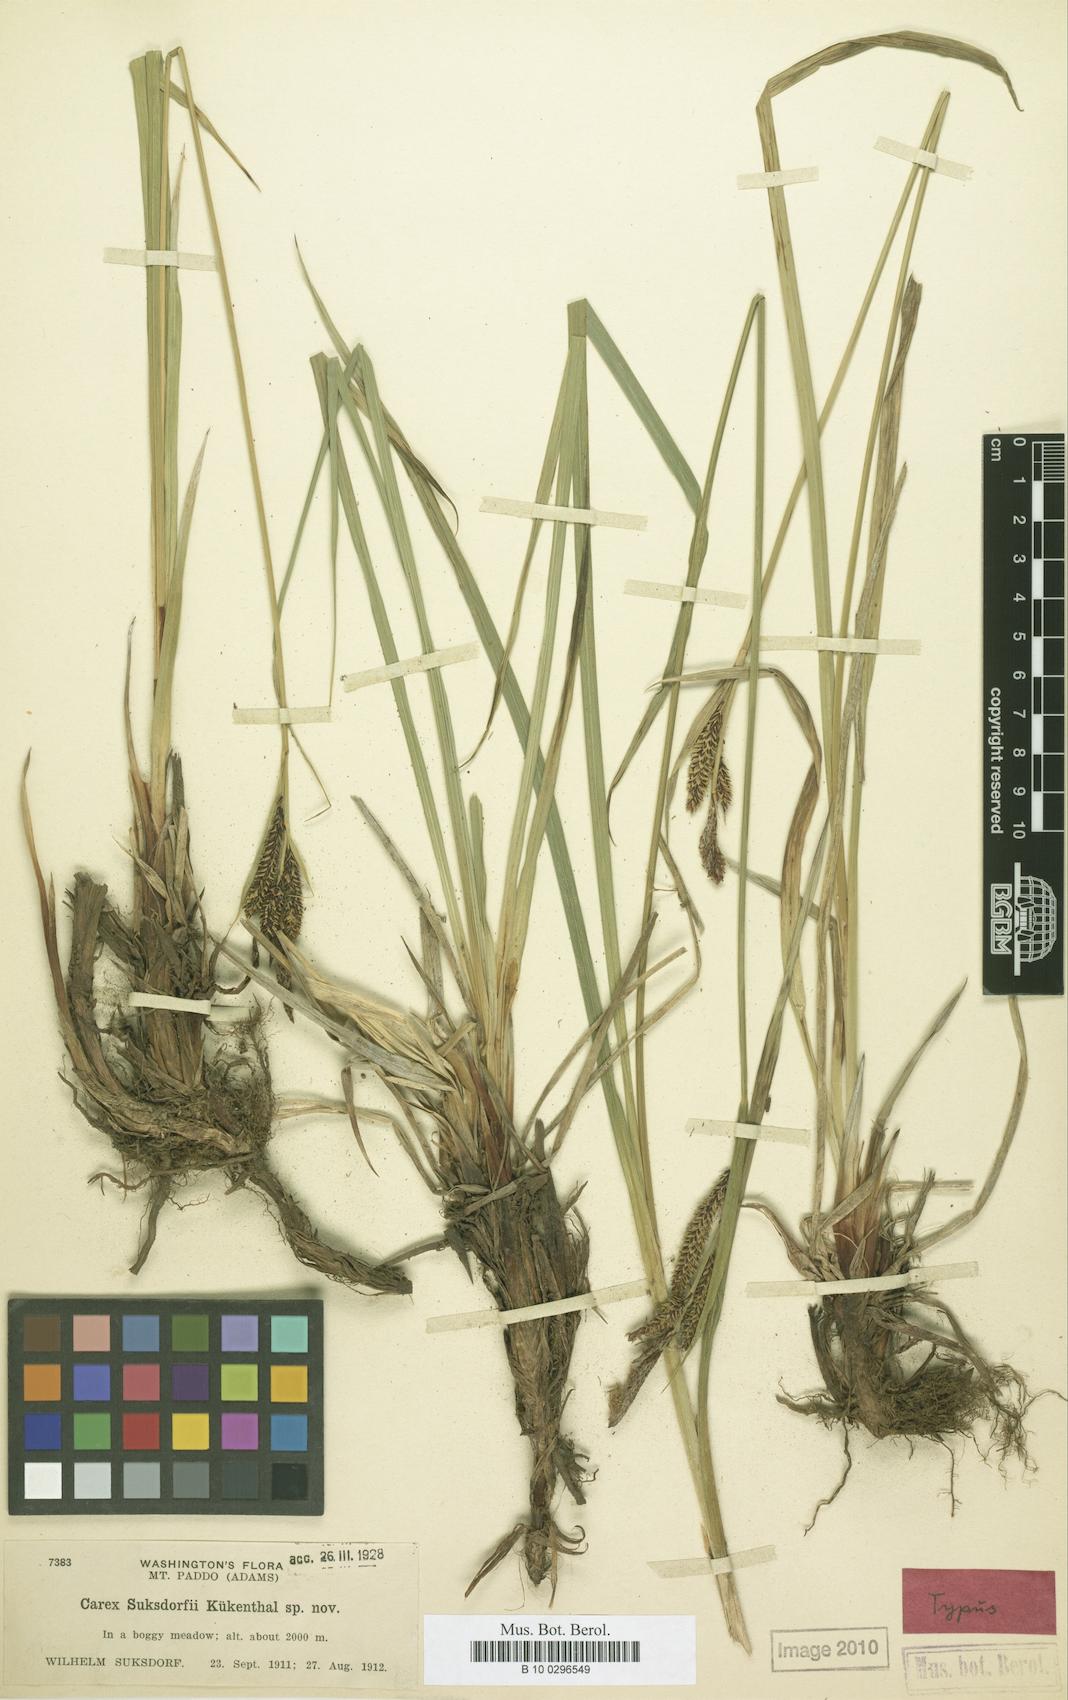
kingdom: Plantae
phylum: Tracheophyta
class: Liliopsida
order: Poales
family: Cyperaceae
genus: Carex
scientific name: Carex aquatilis
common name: Water sedge
